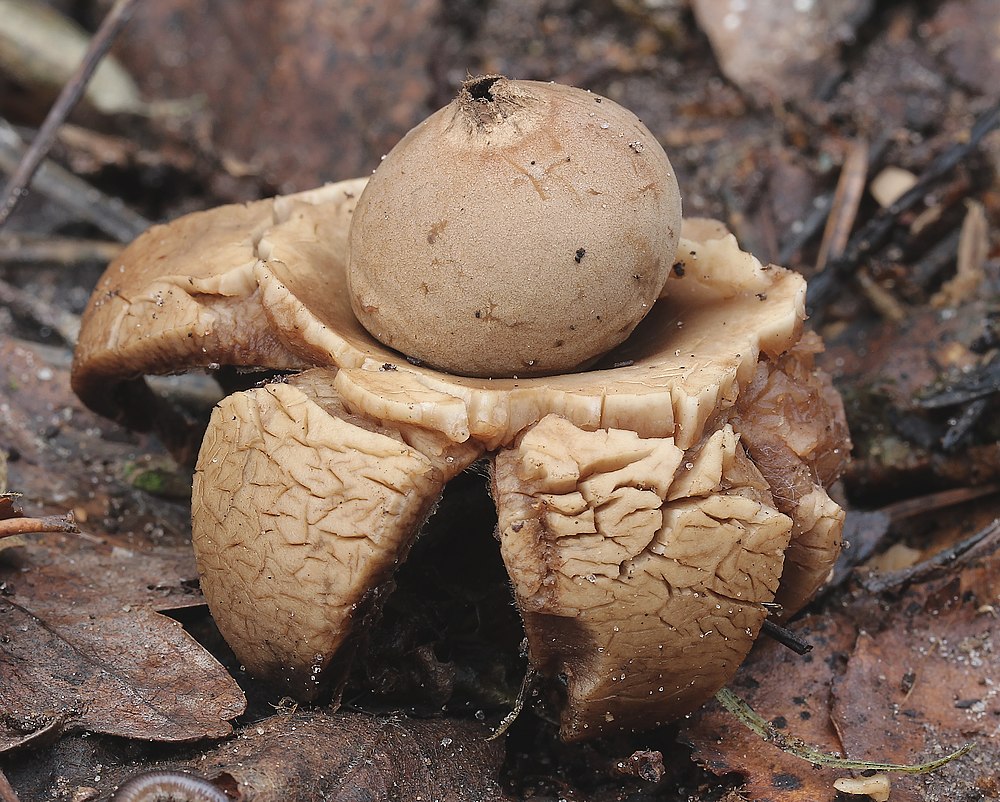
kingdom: Fungi
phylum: Basidiomycota
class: Agaricomycetes
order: Geastrales
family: Geastraceae
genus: Geastrum
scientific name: Geastrum michelianum
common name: kødet stjernebold
